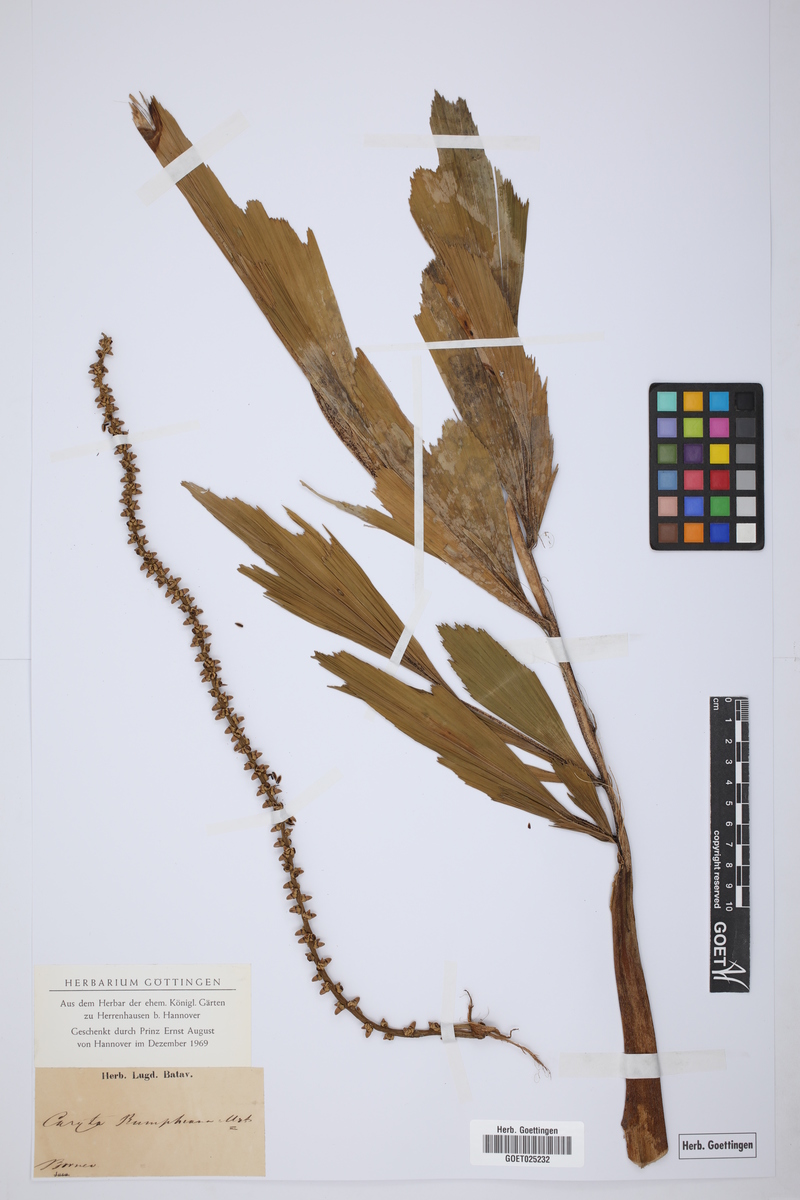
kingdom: Plantae
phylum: Tracheophyta
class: Liliopsida
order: Arecales
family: Arecaceae
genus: Caryota
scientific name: Caryota rumphiana
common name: Albert palm
